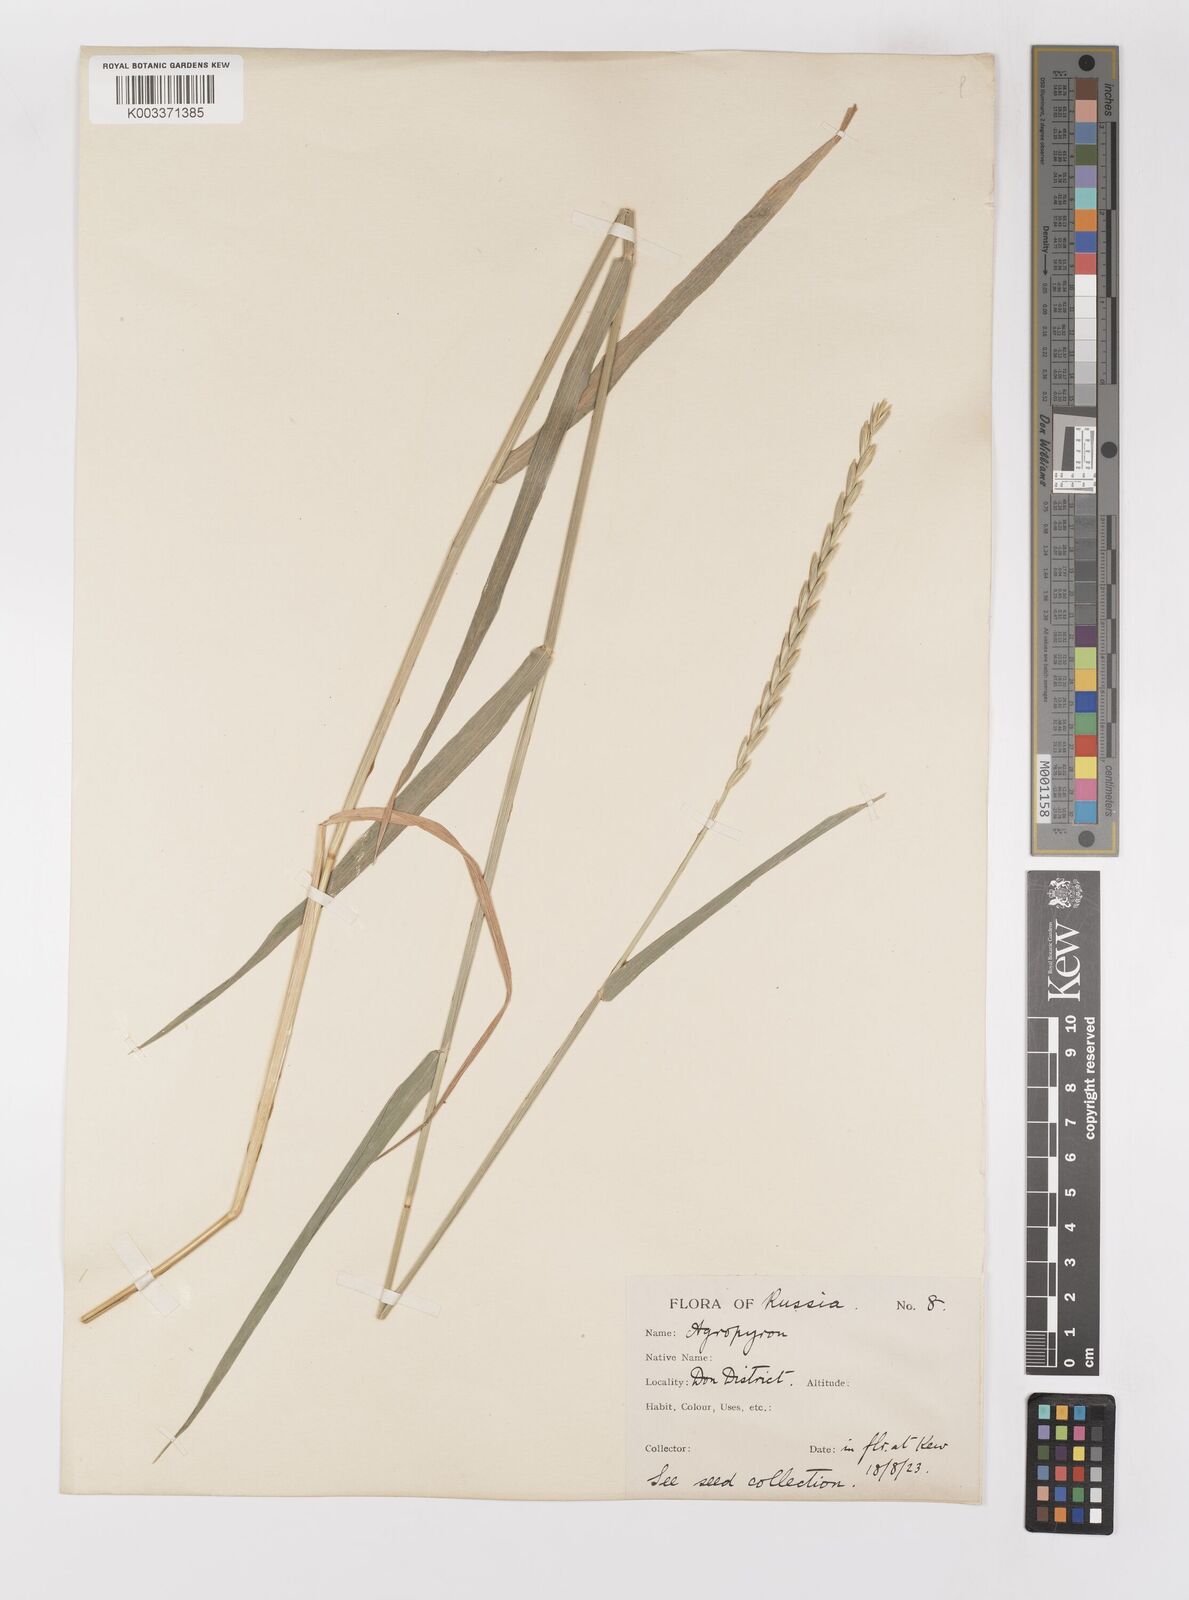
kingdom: Plantae
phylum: Tracheophyta
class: Liliopsida
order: Poales
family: Poaceae
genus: Elymus
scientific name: Elymus repens
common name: Quackgrass
